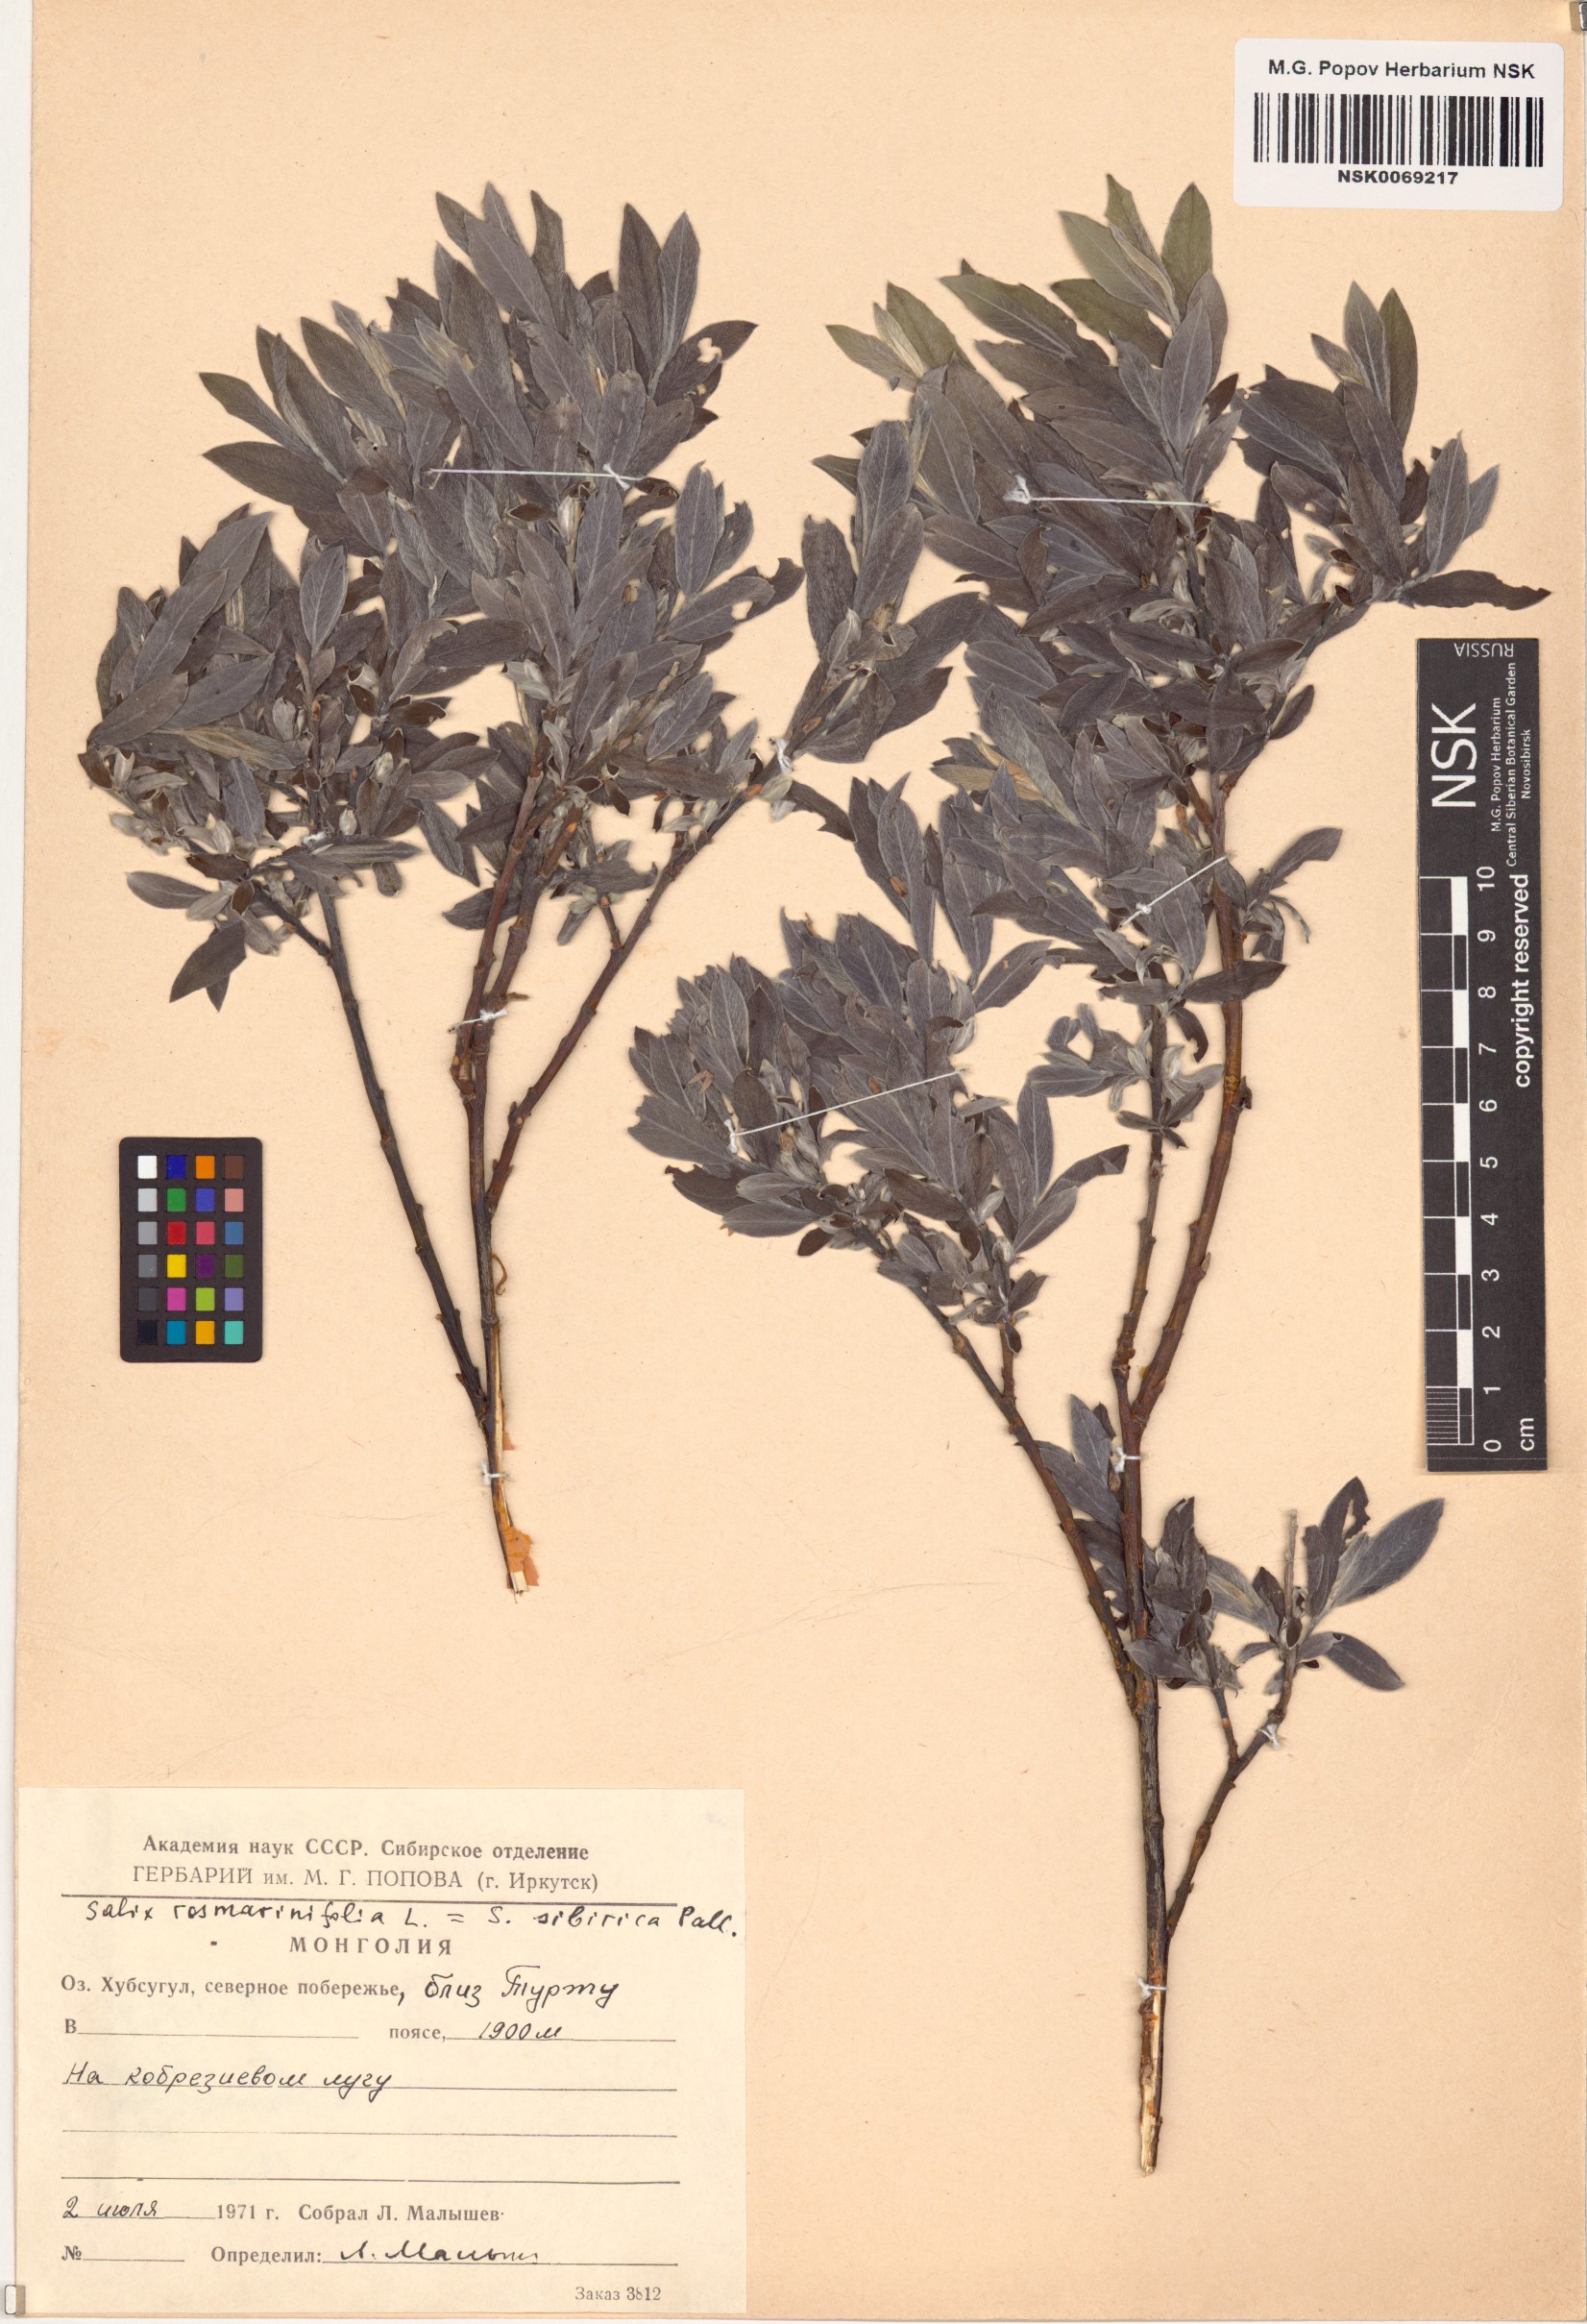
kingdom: Plantae
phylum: Tracheophyta
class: Magnoliopsida
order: Malpighiales
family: Salicaceae
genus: Salix
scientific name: Salix rosmarinifolia
